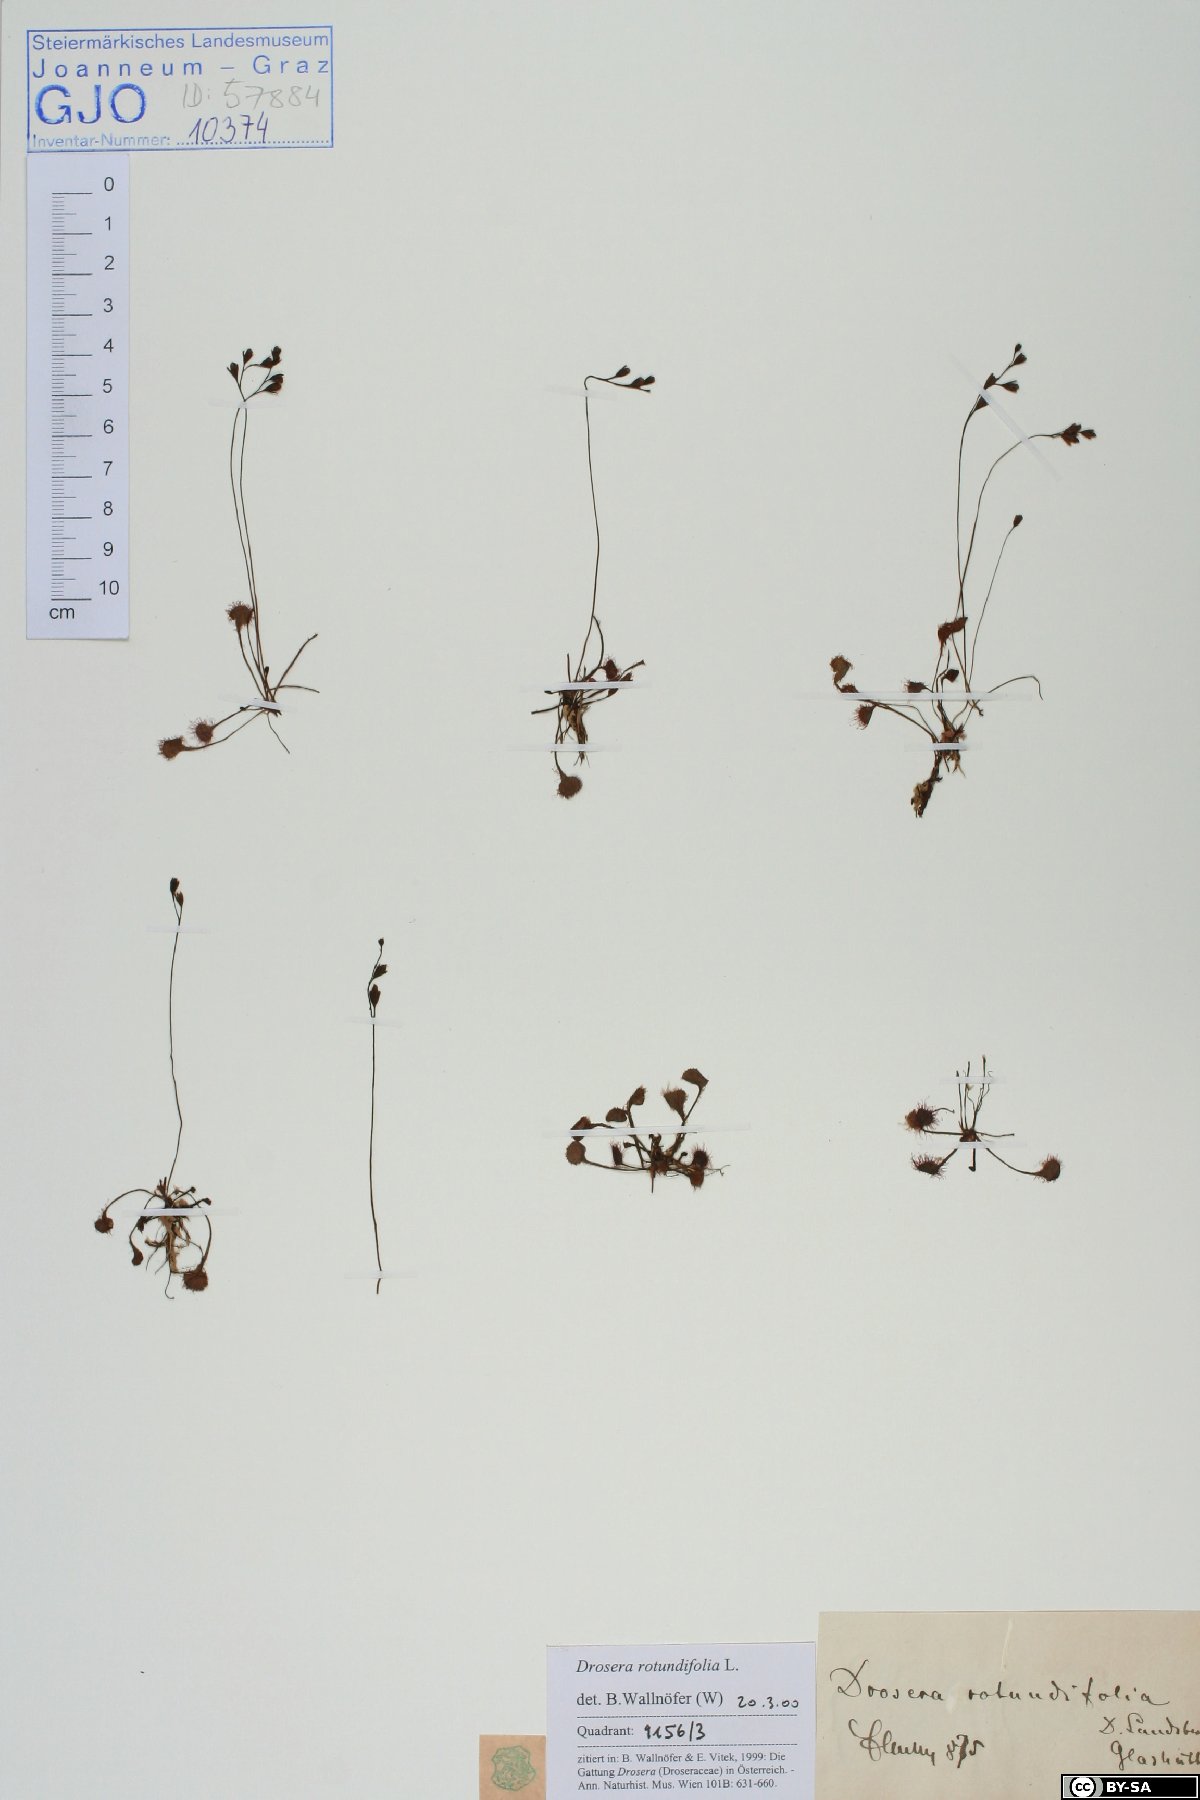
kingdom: Plantae
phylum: Tracheophyta
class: Magnoliopsida
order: Caryophyllales
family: Droseraceae
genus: Drosera
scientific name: Drosera rotundifolia
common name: Round-leaved sundew
